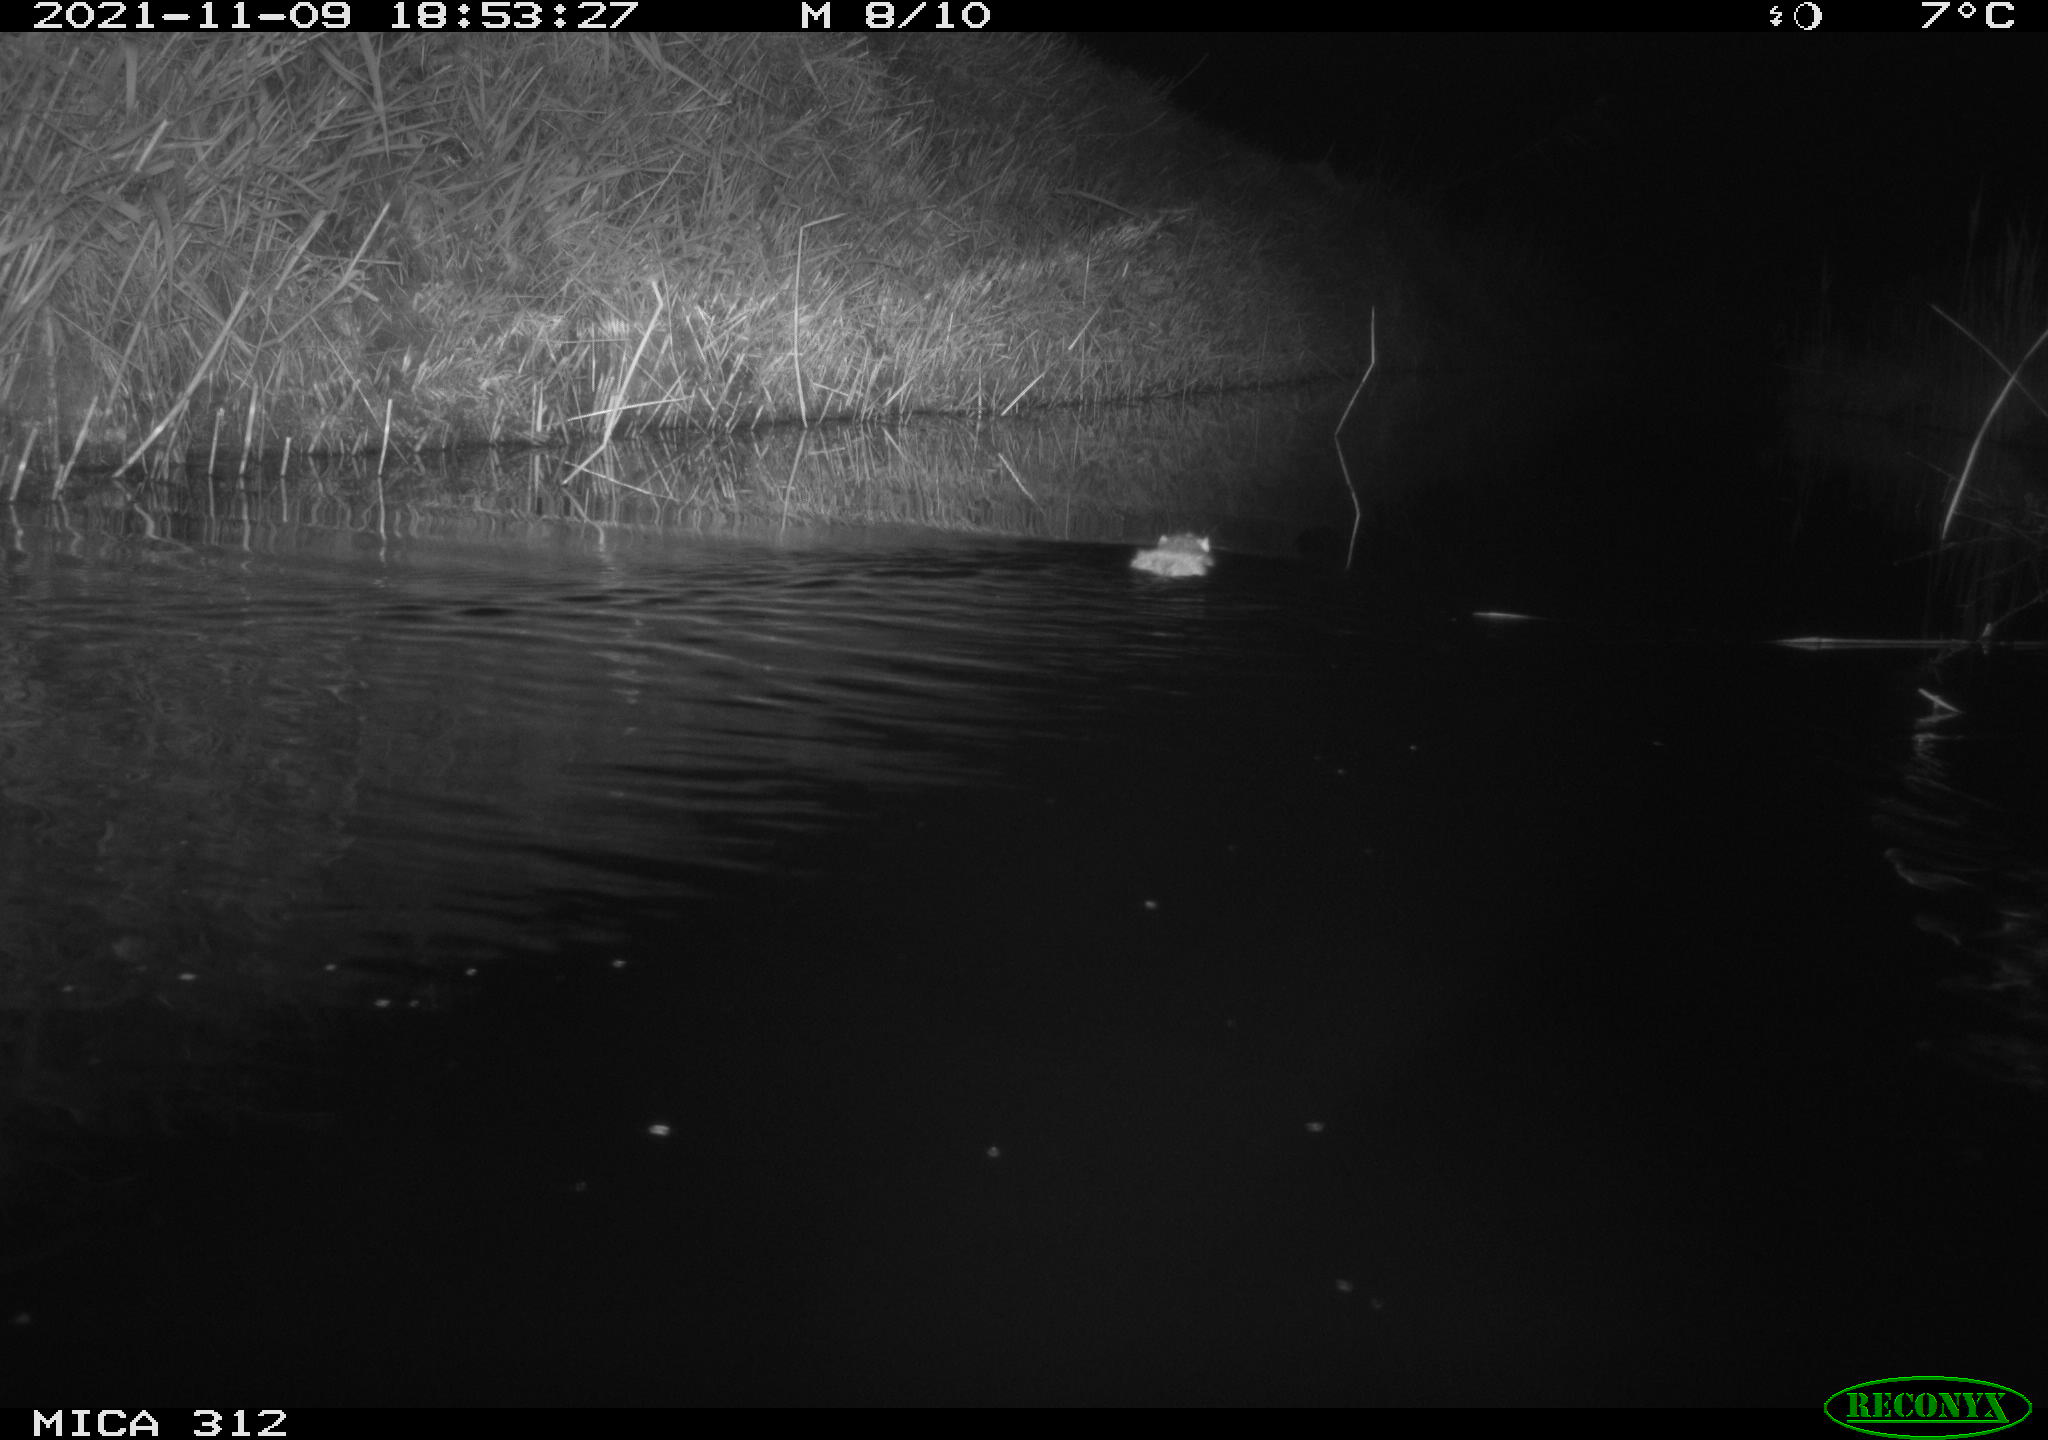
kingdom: Animalia
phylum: Chordata
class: Mammalia
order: Rodentia
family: Muridae
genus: Rattus
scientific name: Rattus norvegicus
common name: Brown rat
